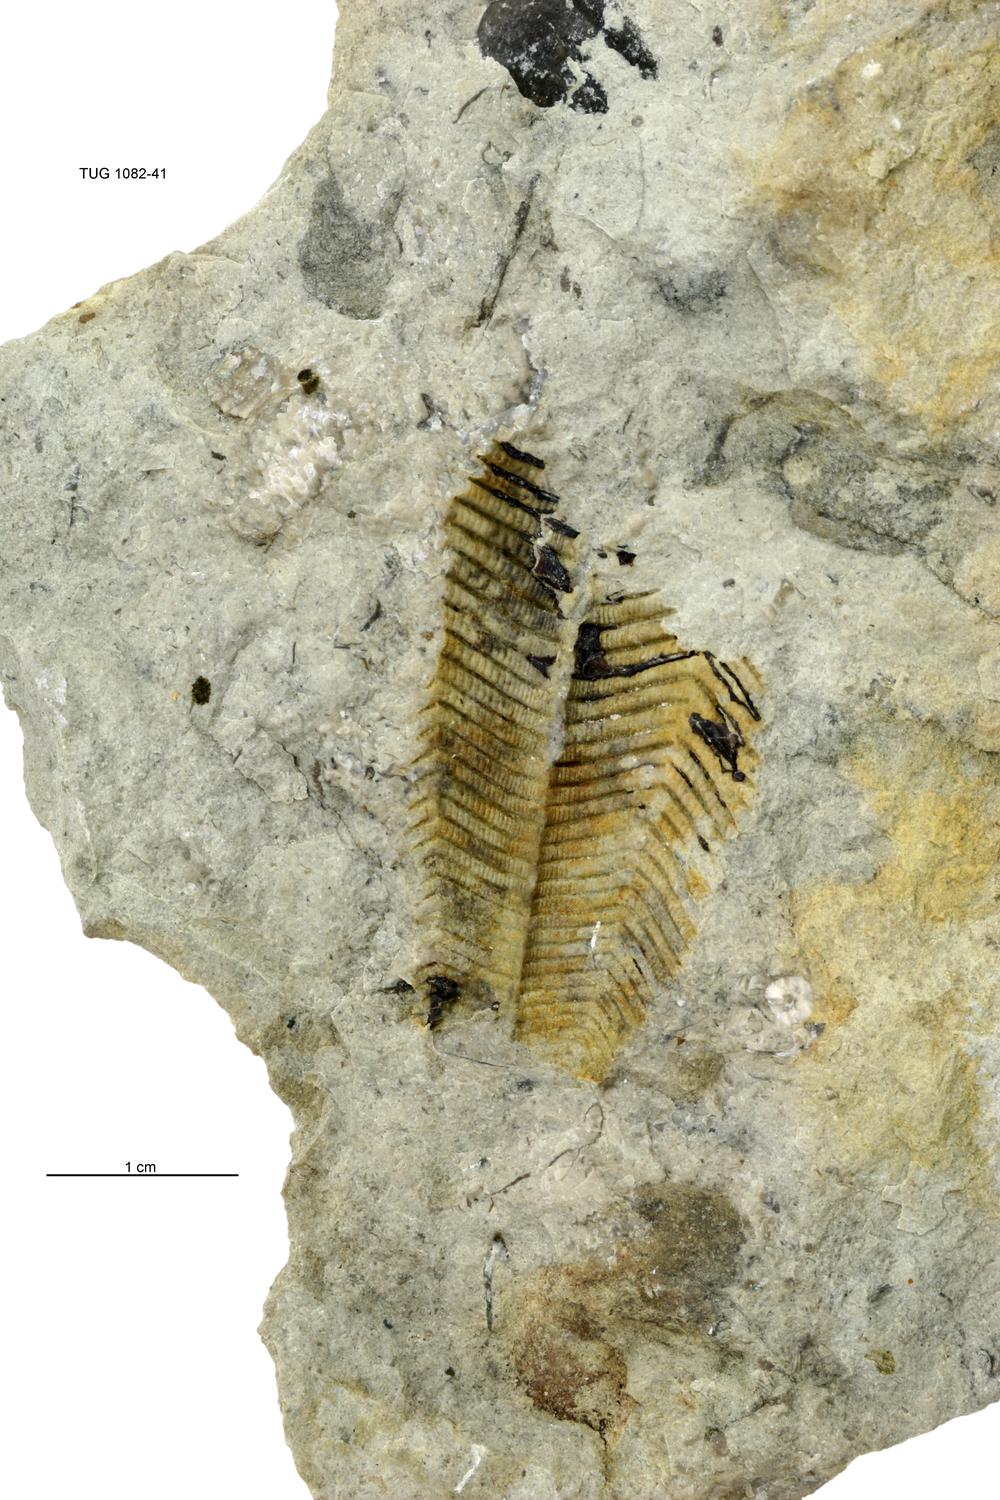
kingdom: Animalia
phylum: Cnidaria
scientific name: Cnidaria
